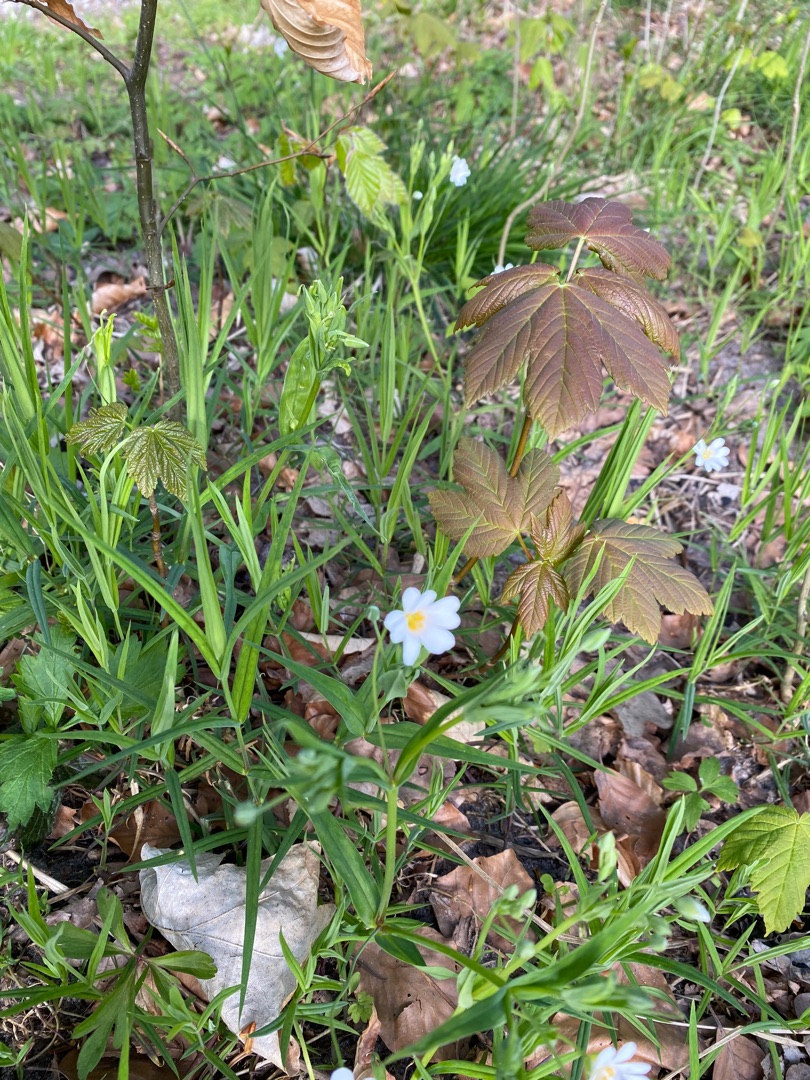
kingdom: Plantae
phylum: Tracheophyta
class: Magnoliopsida
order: Caryophyllales
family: Caryophyllaceae
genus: Rabelera
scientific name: Rabelera holostea
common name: Stor fladstjerne
